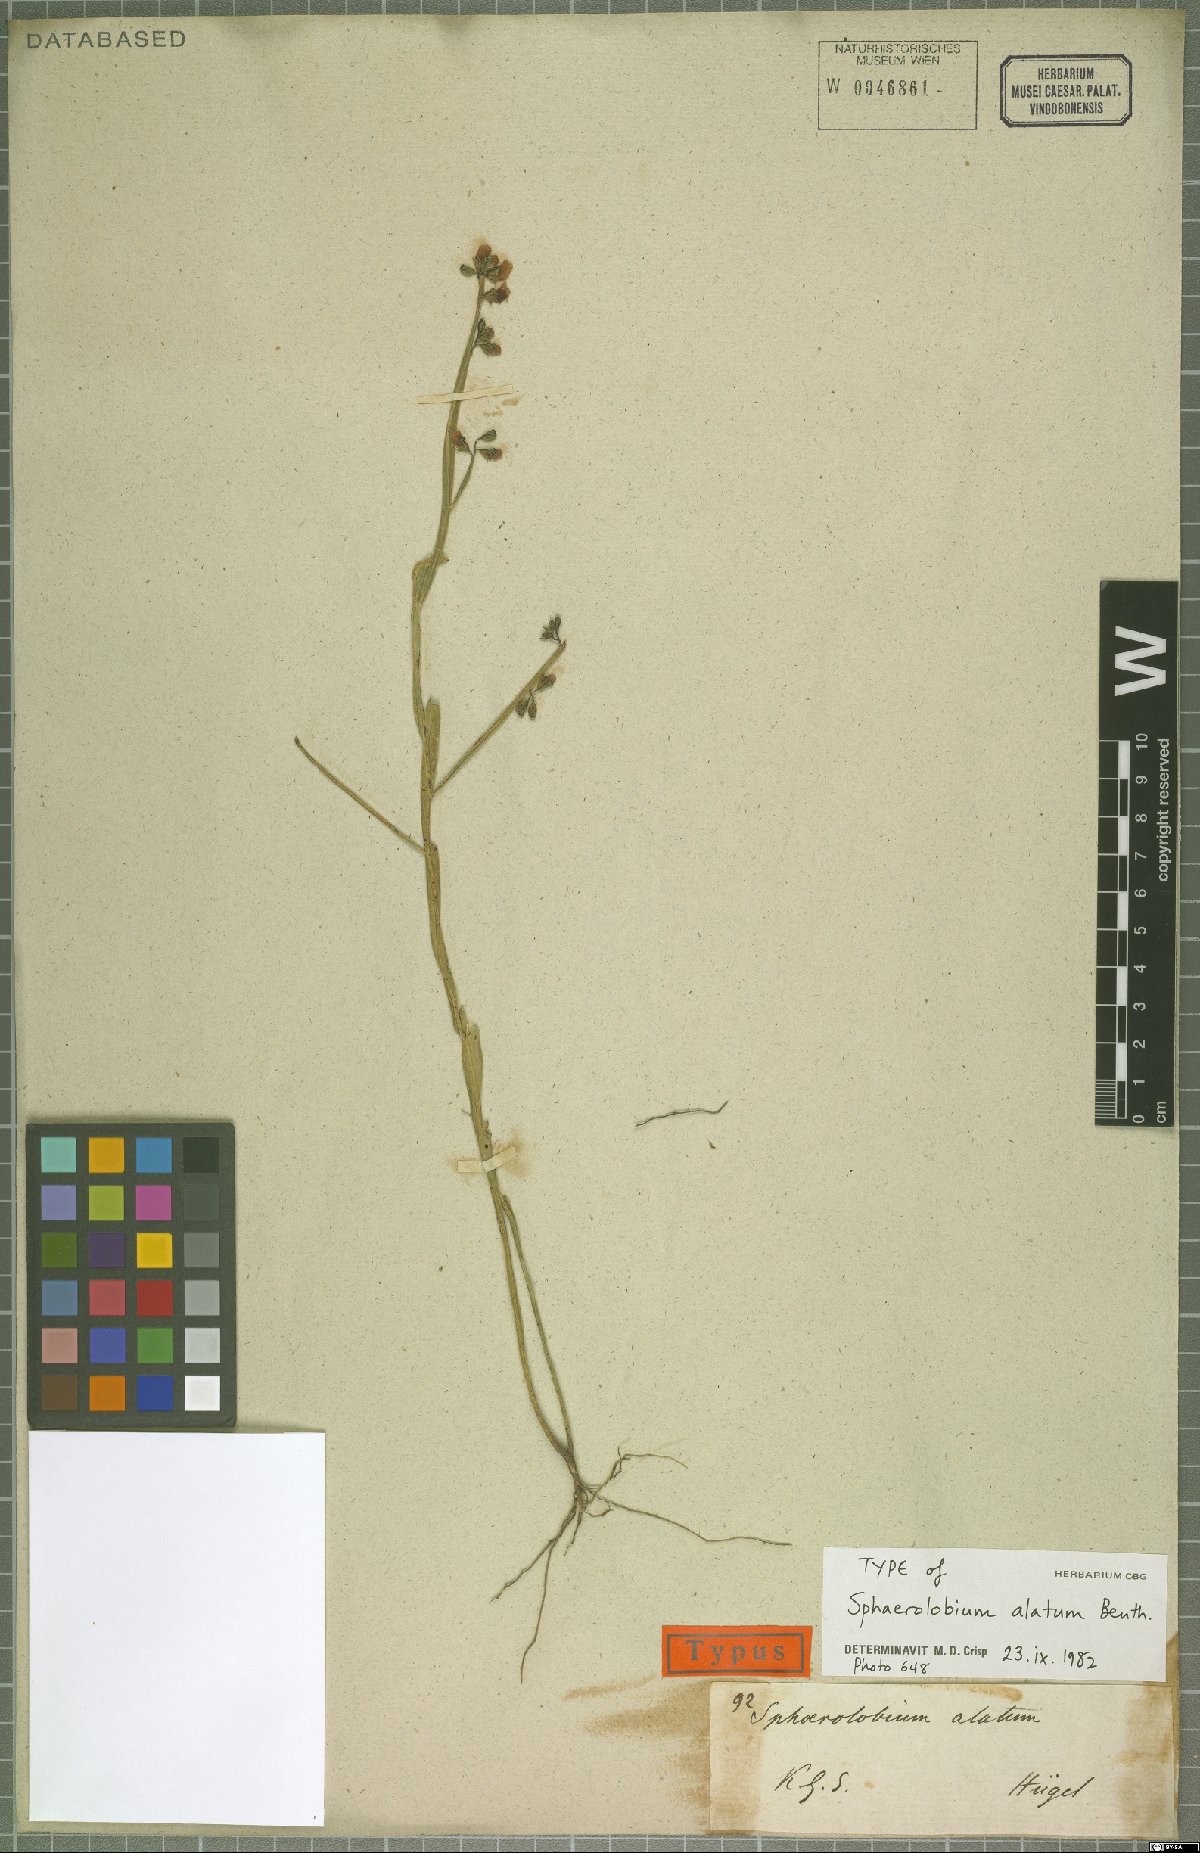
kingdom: Plantae
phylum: Tracheophyta
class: Magnoliopsida
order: Fabales
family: Fabaceae
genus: Sphaerolobium
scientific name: Sphaerolobium alatum
